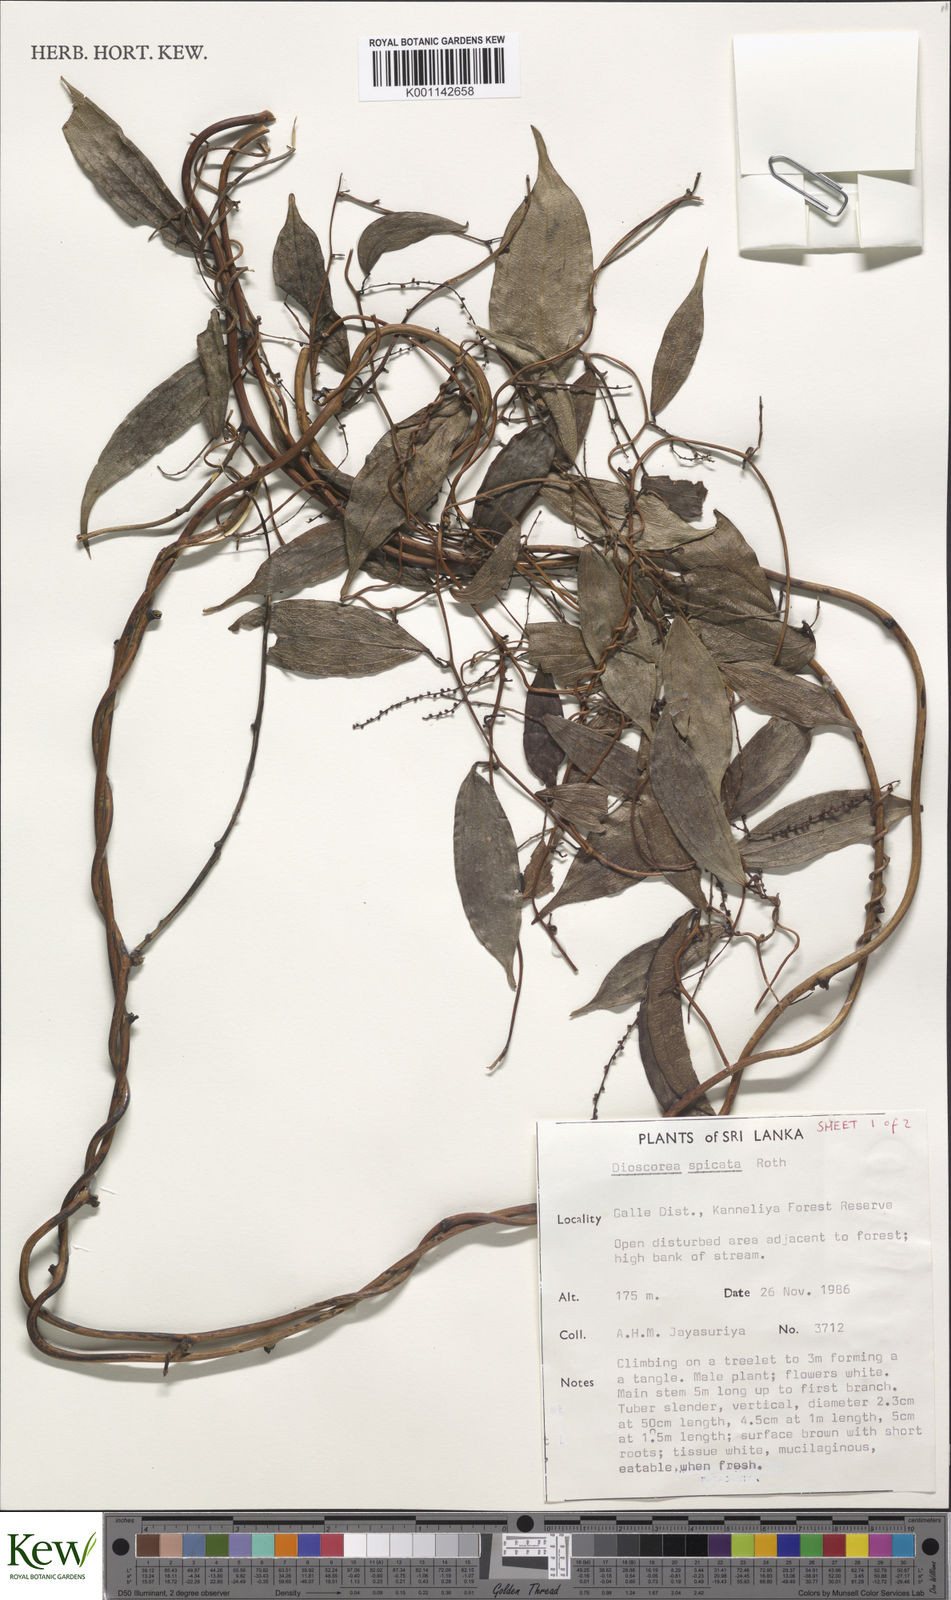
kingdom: Plantae
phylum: Tracheophyta
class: Liliopsida
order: Dioscoreales
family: Dioscoreaceae
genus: Dioscorea
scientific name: Dioscorea spicata
